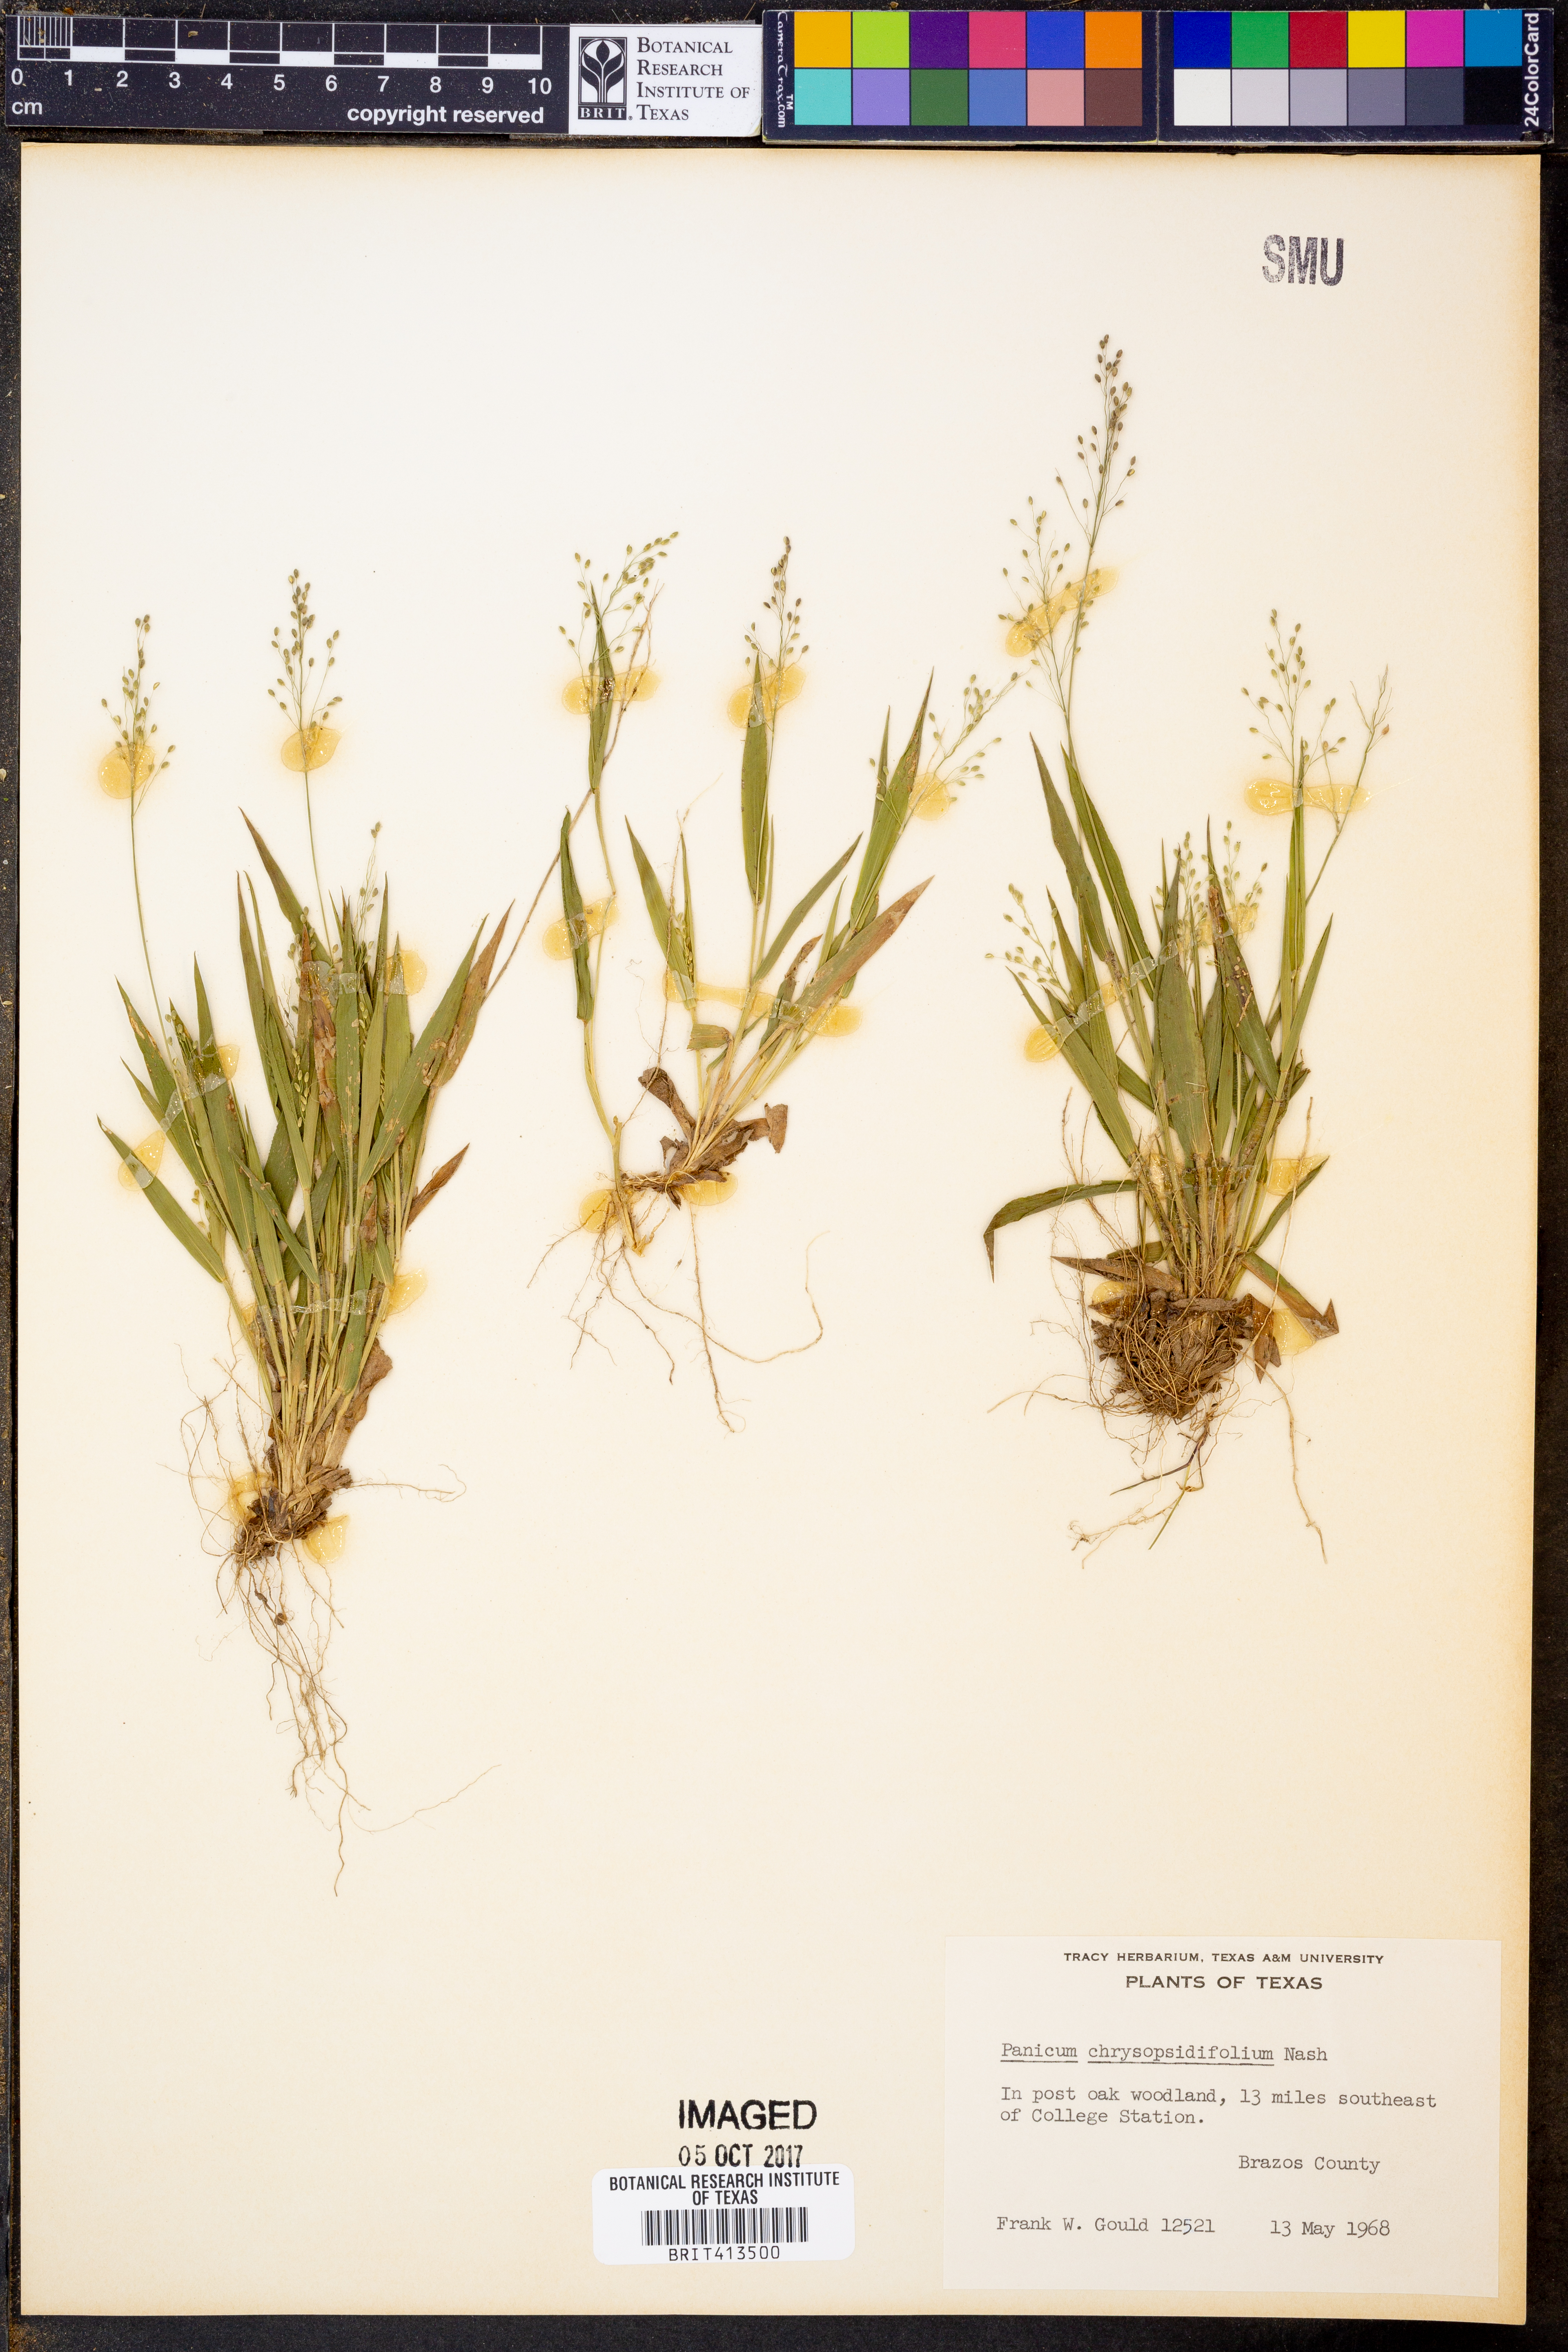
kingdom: Plantae
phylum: Tracheophyta
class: Liliopsida
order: Poales
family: Poaceae
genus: Dichanthelium
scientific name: Dichanthelium chrysopsidifolium
